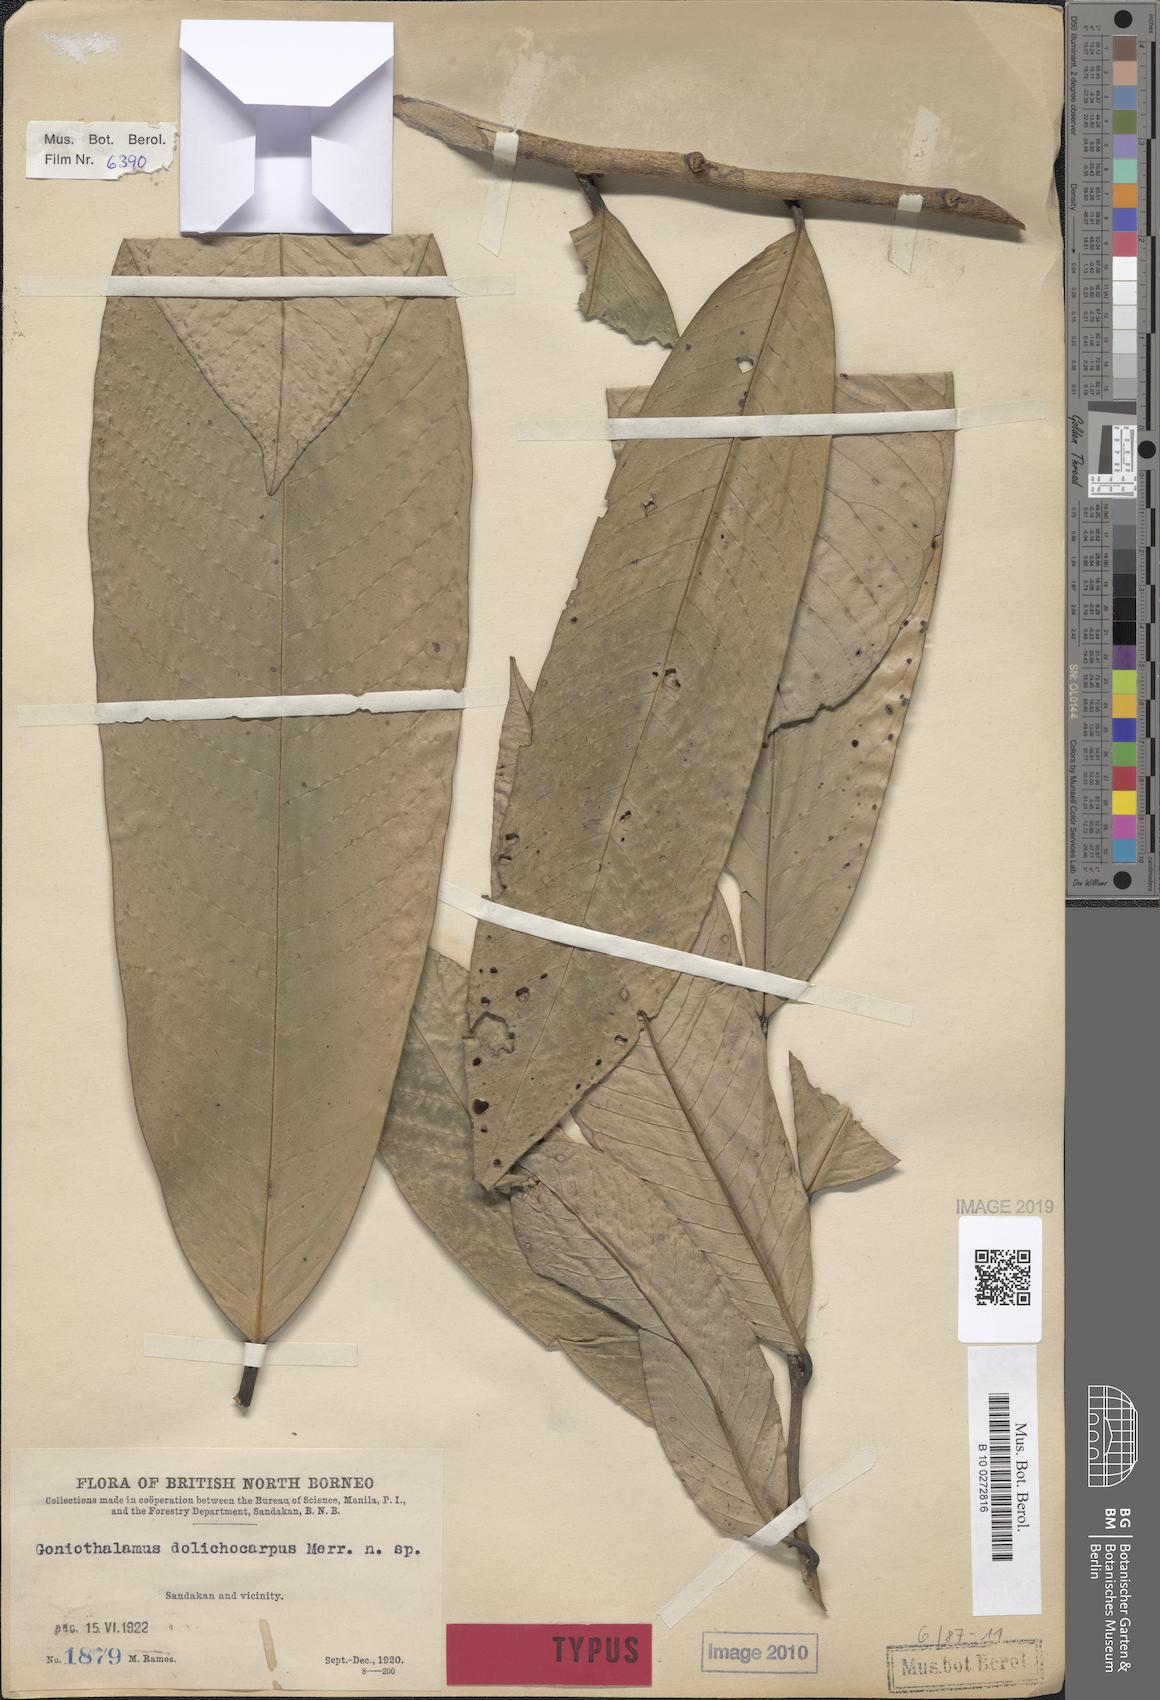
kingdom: Plantae
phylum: Tracheophyta
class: Magnoliopsida
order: Magnoliales
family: Annonaceae
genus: Goniothalamus
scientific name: Goniothalamus dolichocarpus
